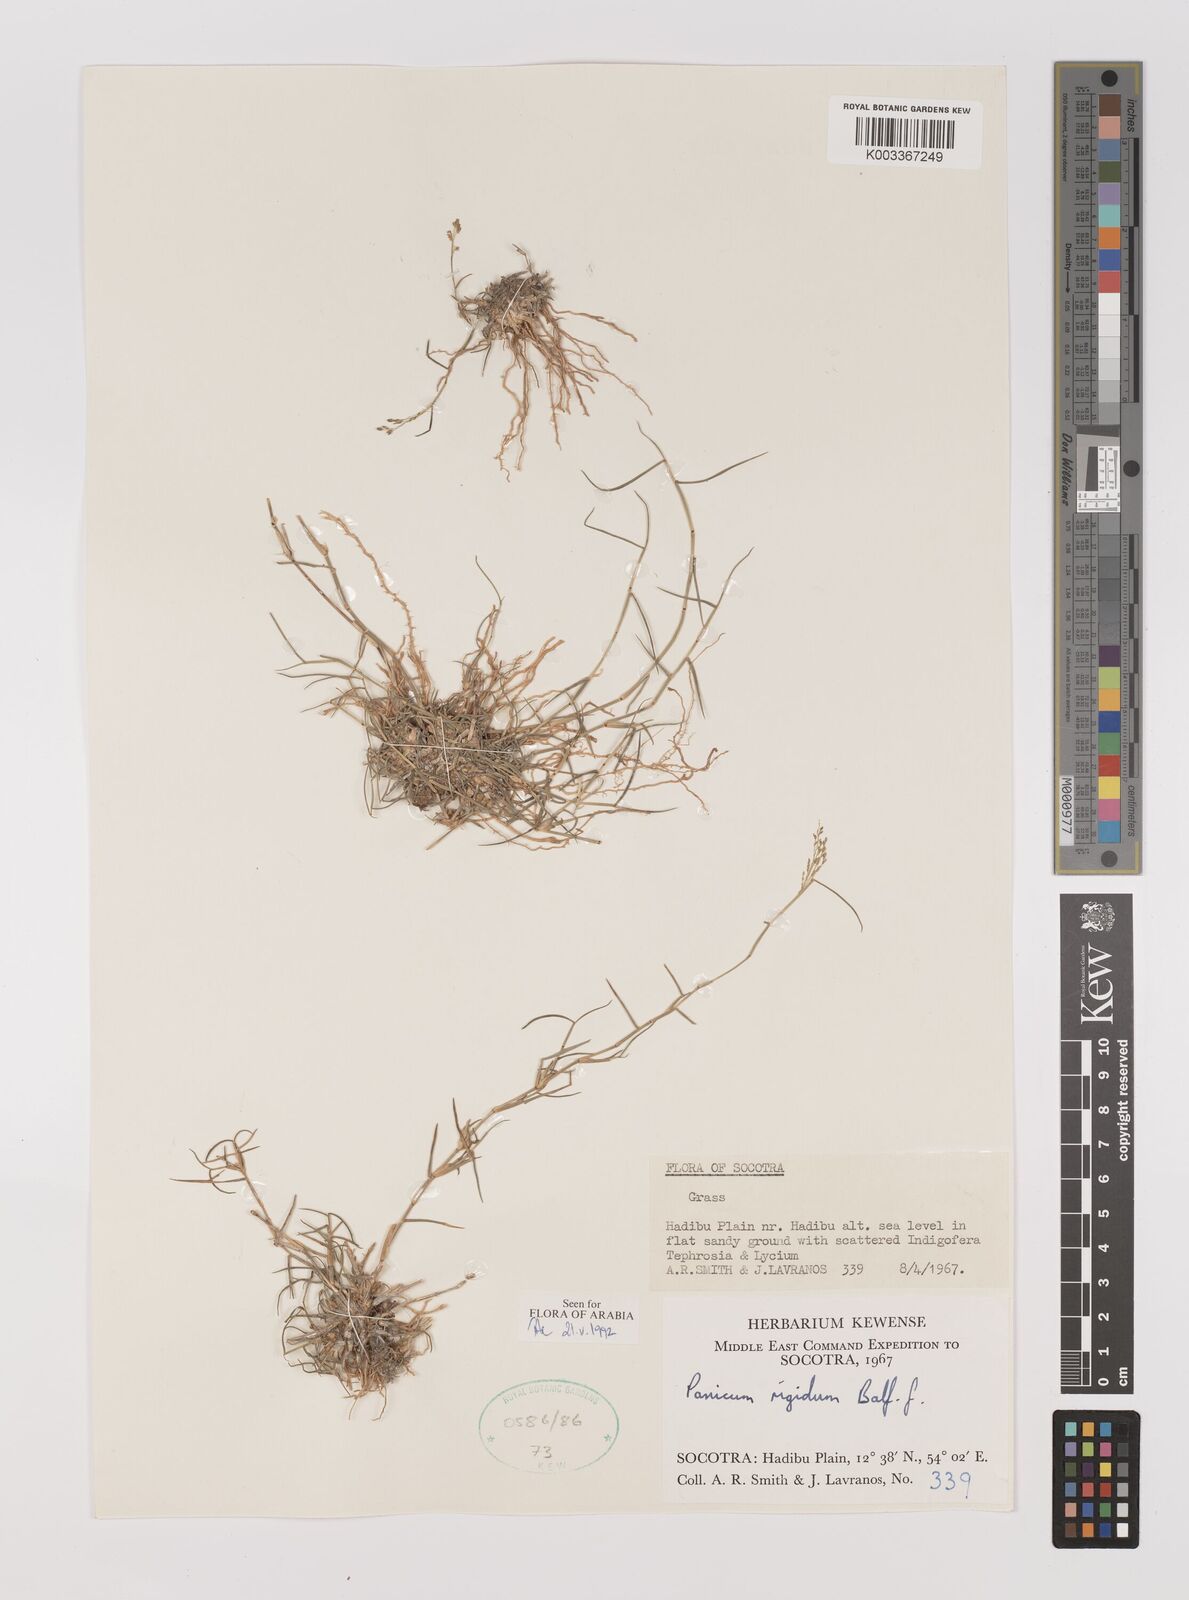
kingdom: Plantae
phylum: Tracheophyta
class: Liliopsida
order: Poales
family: Poaceae
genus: Panicum
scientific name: Panicum rigidum
